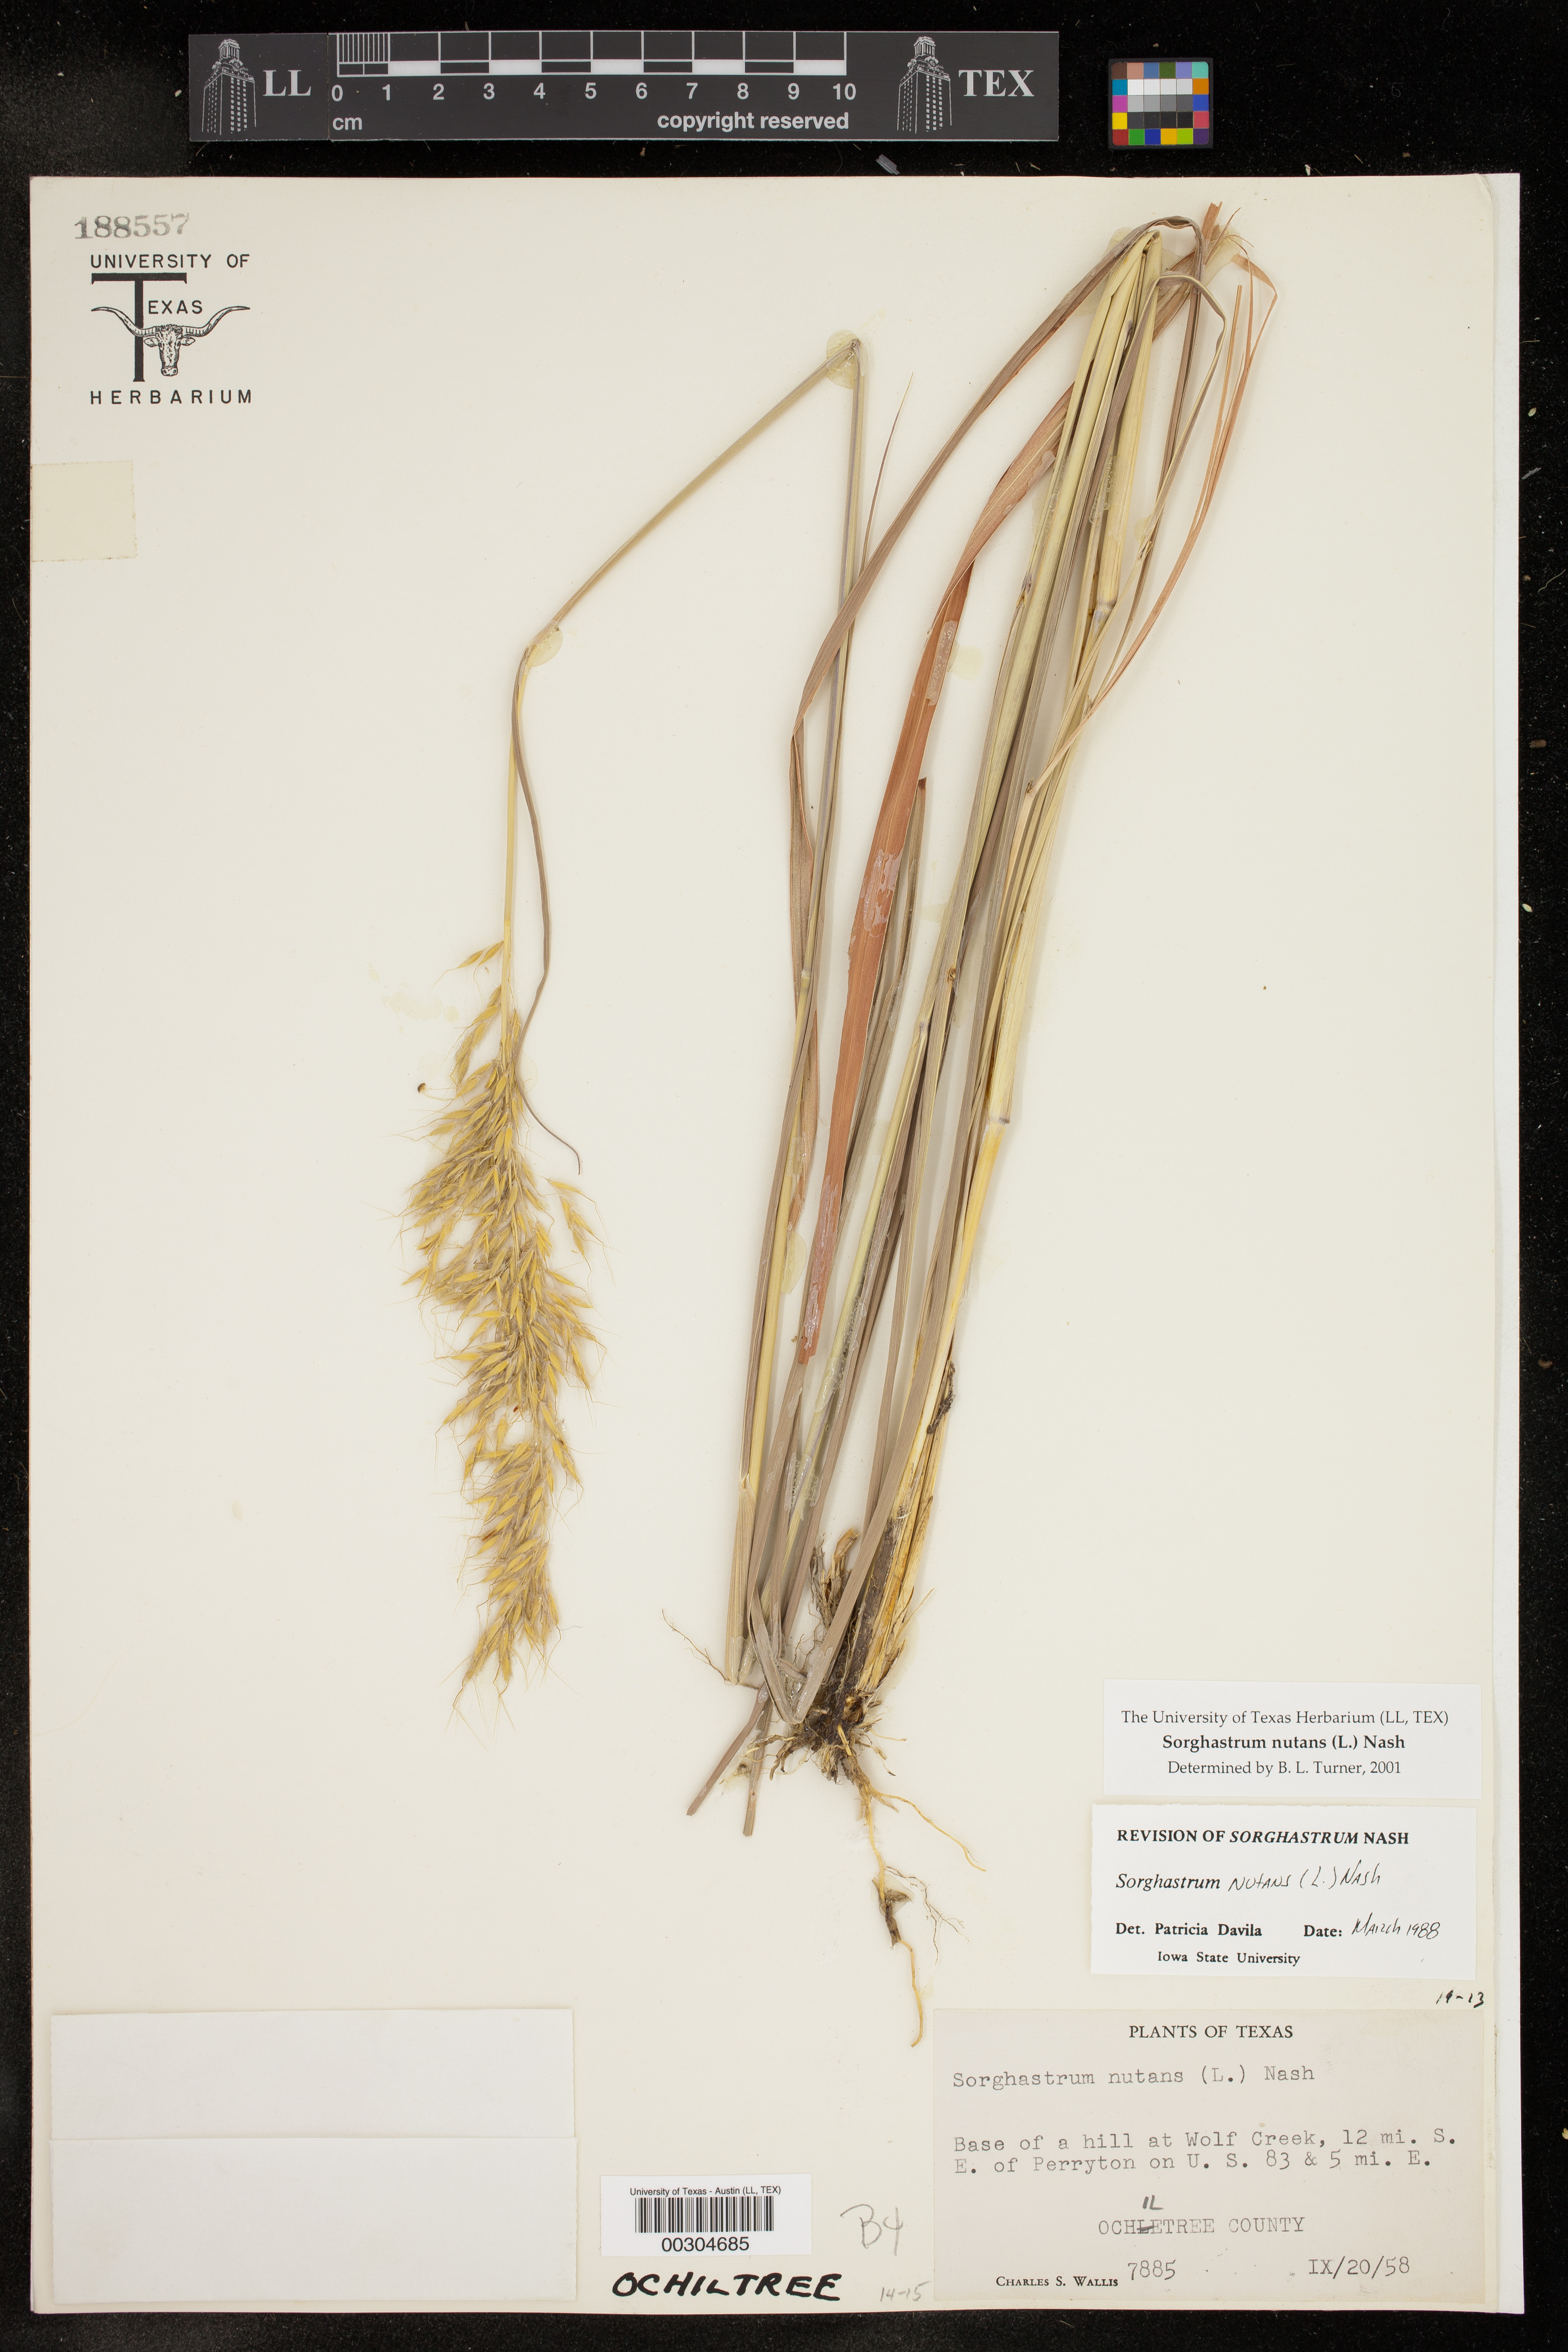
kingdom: Plantae
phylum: Tracheophyta
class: Liliopsida
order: Poales
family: Poaceae
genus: Sorghastrum
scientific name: Sorghastrum nutans
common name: Indian grass
